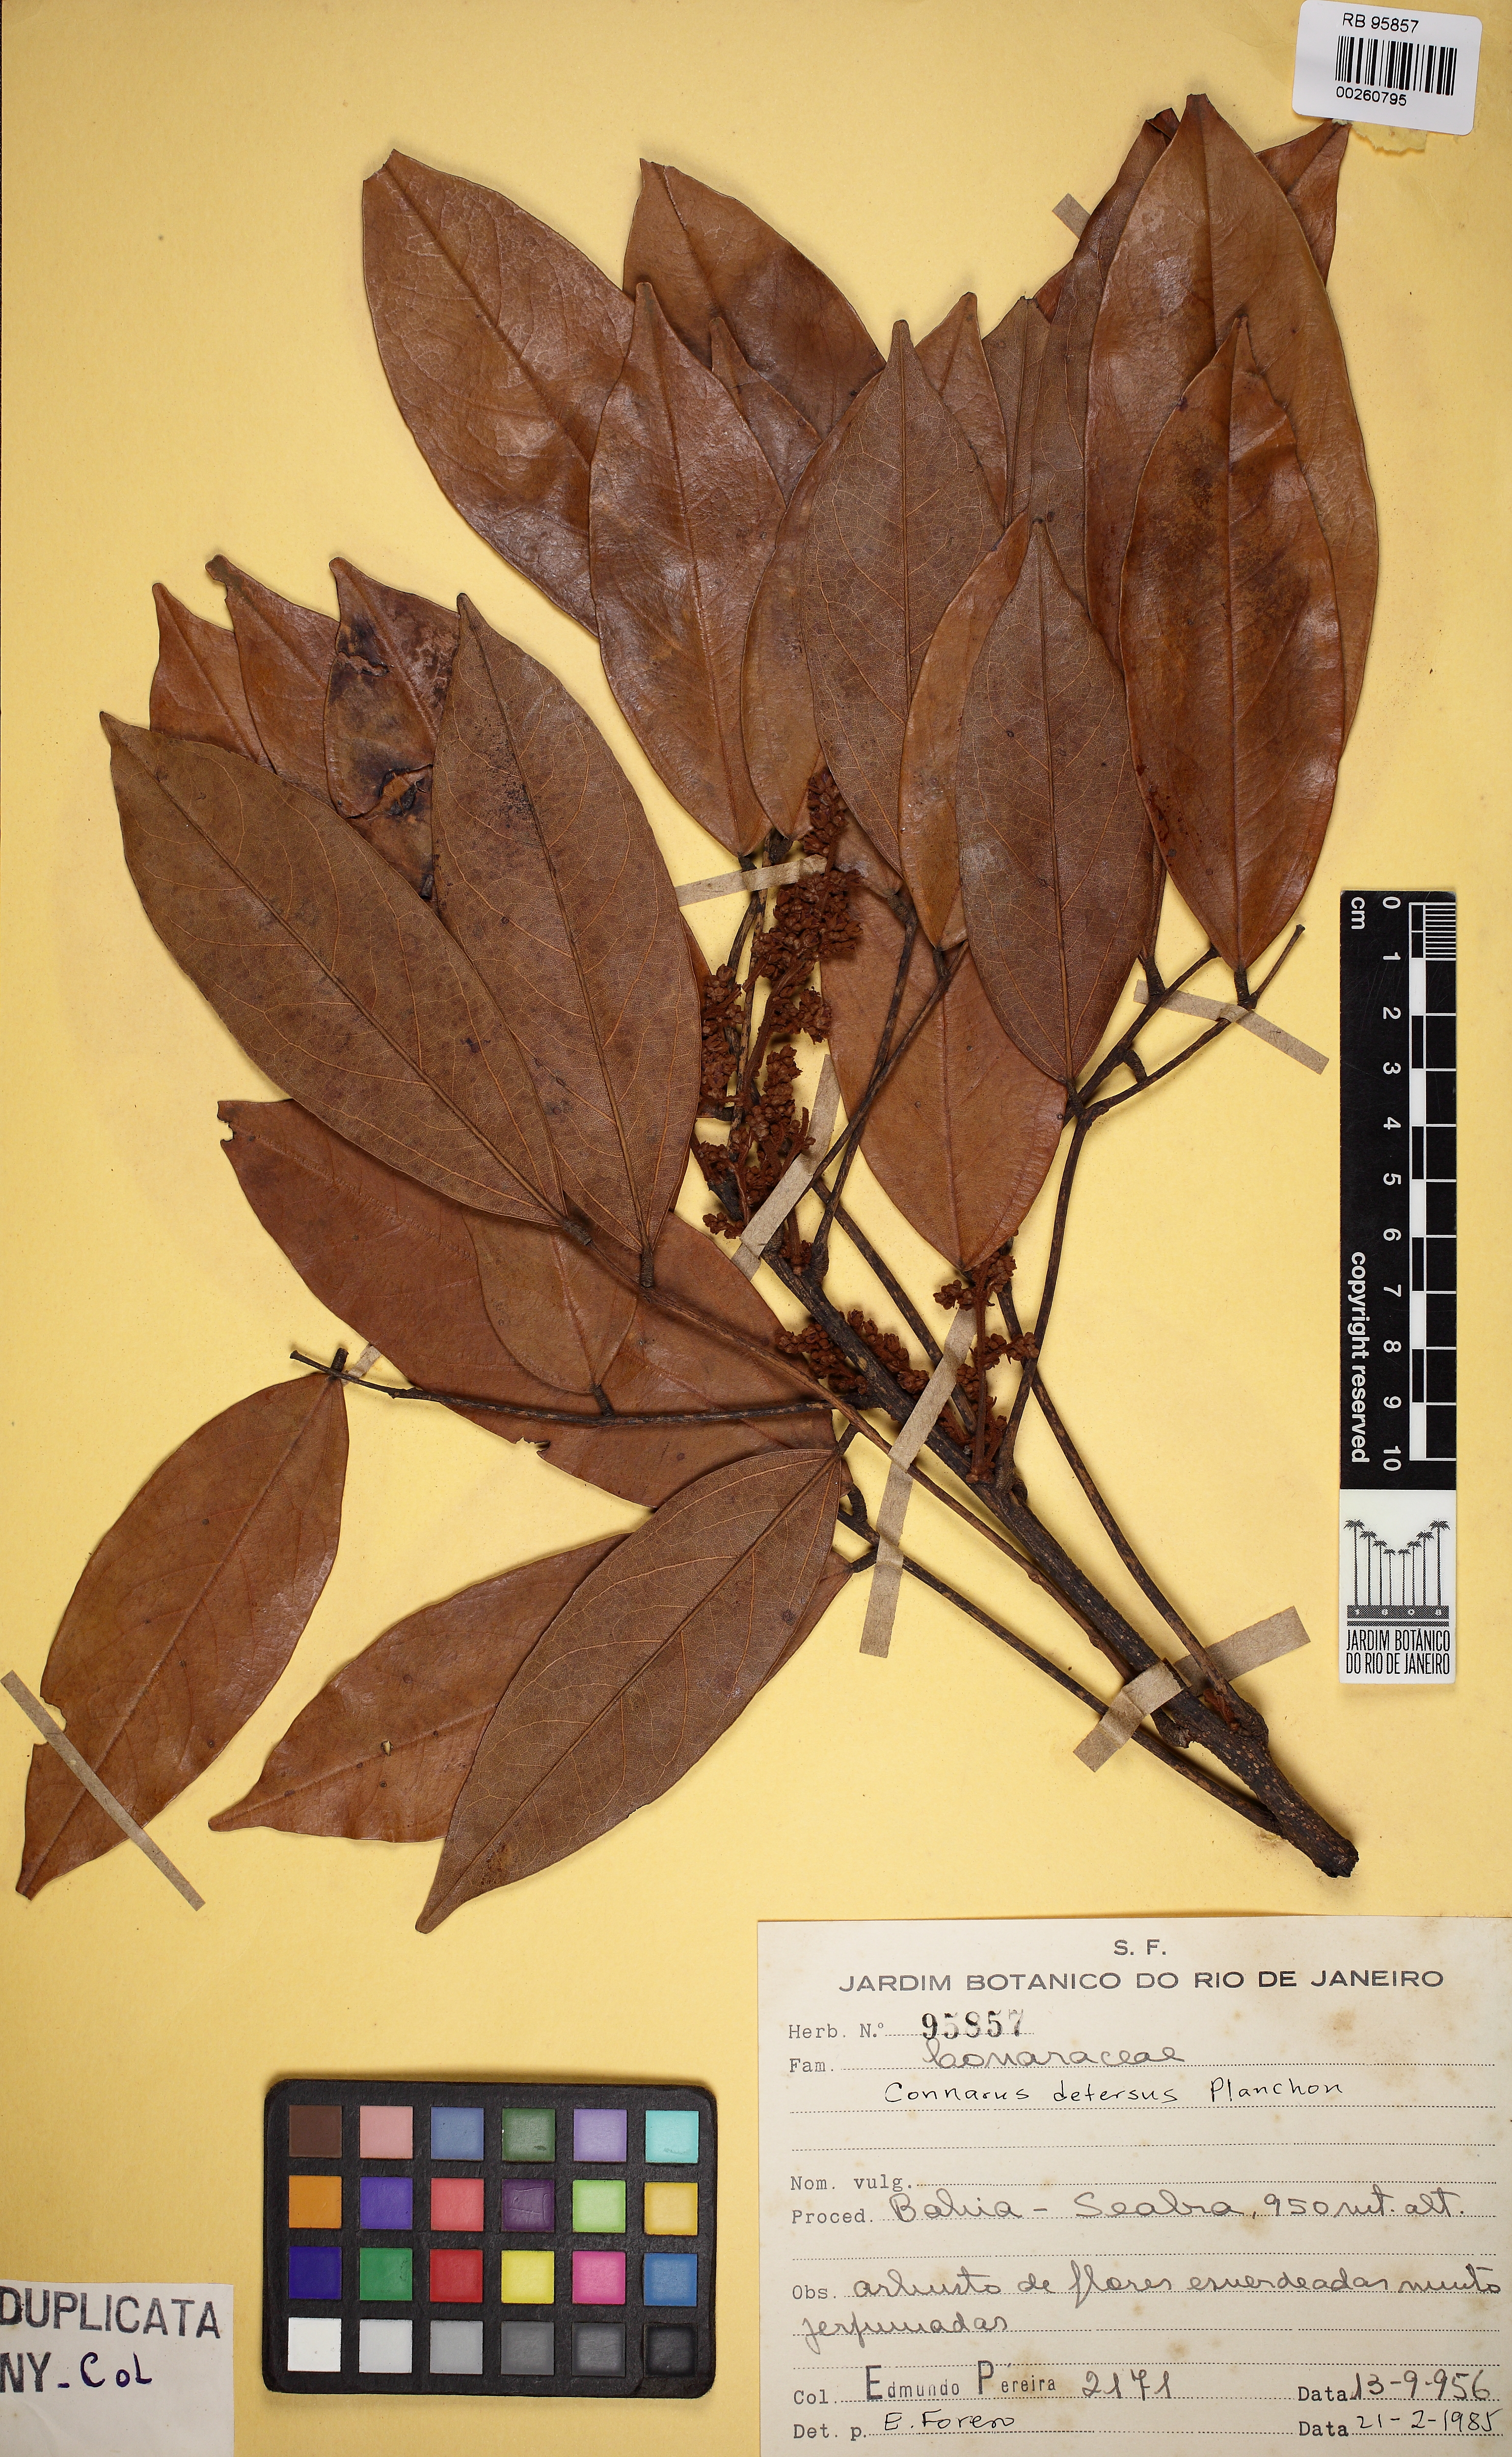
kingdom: Plantae
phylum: Tracheophyta
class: Magnoliopsida
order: Oxalidales
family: Connaraceae
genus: Connarus
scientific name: Connarus detersus
